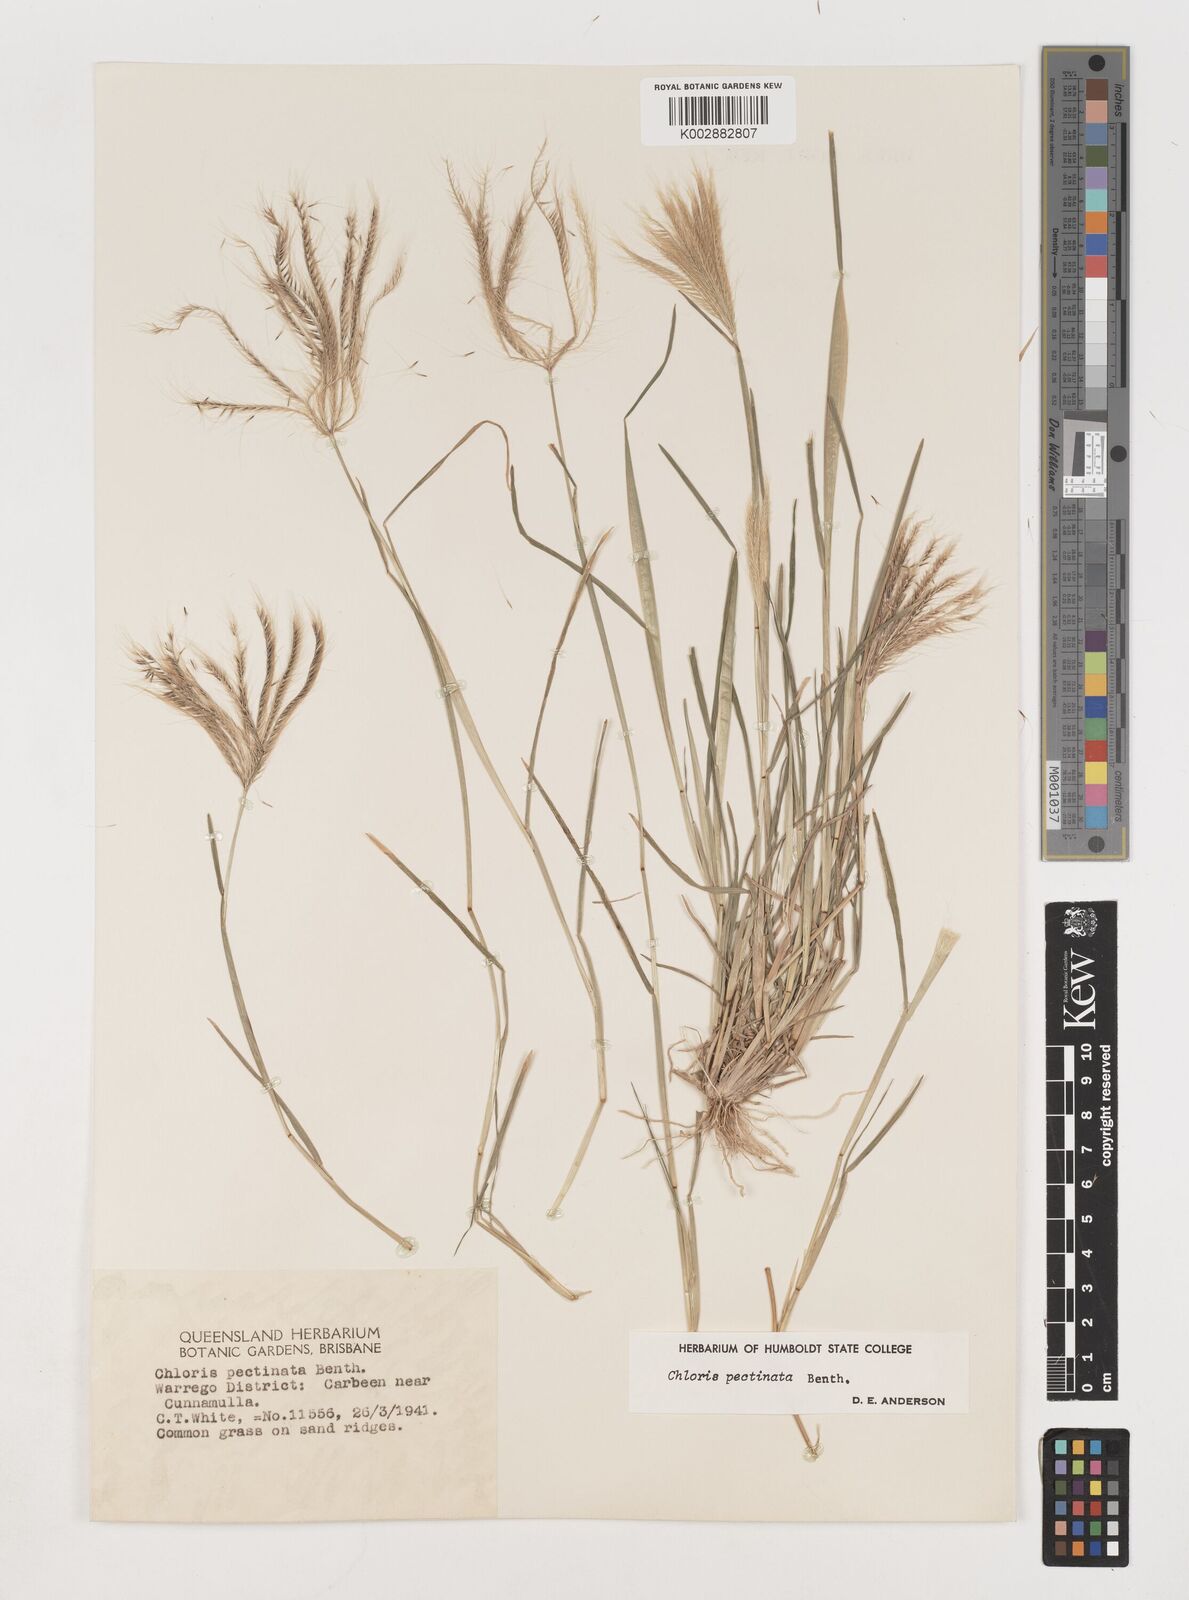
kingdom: Plantae
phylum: Tracheophyta
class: Liliopsida
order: Poales
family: Poaceae
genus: Chloris
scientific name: Chloris pectinata
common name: Comb windmill grass
